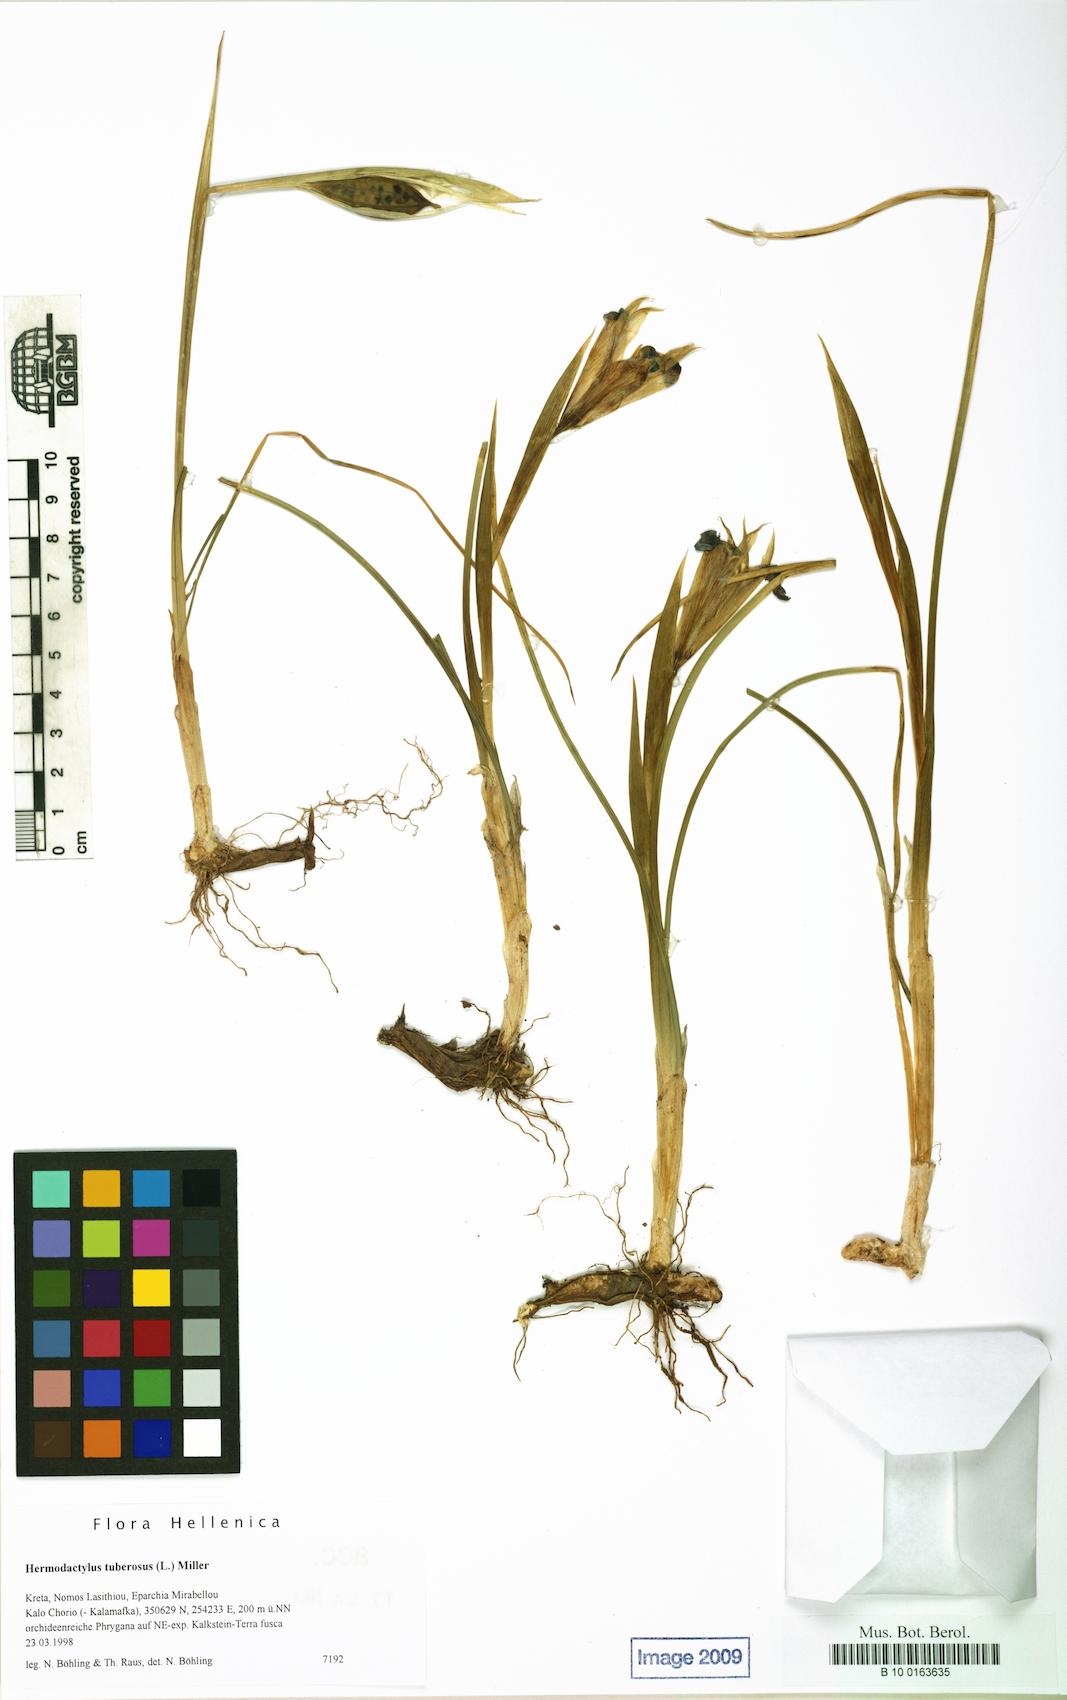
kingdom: Plantae
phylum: Tracheophyta
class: Liliopsida
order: Asparagales
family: Iridaceae
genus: Iris
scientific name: Iris tuberosa
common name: Snake's-head iris
